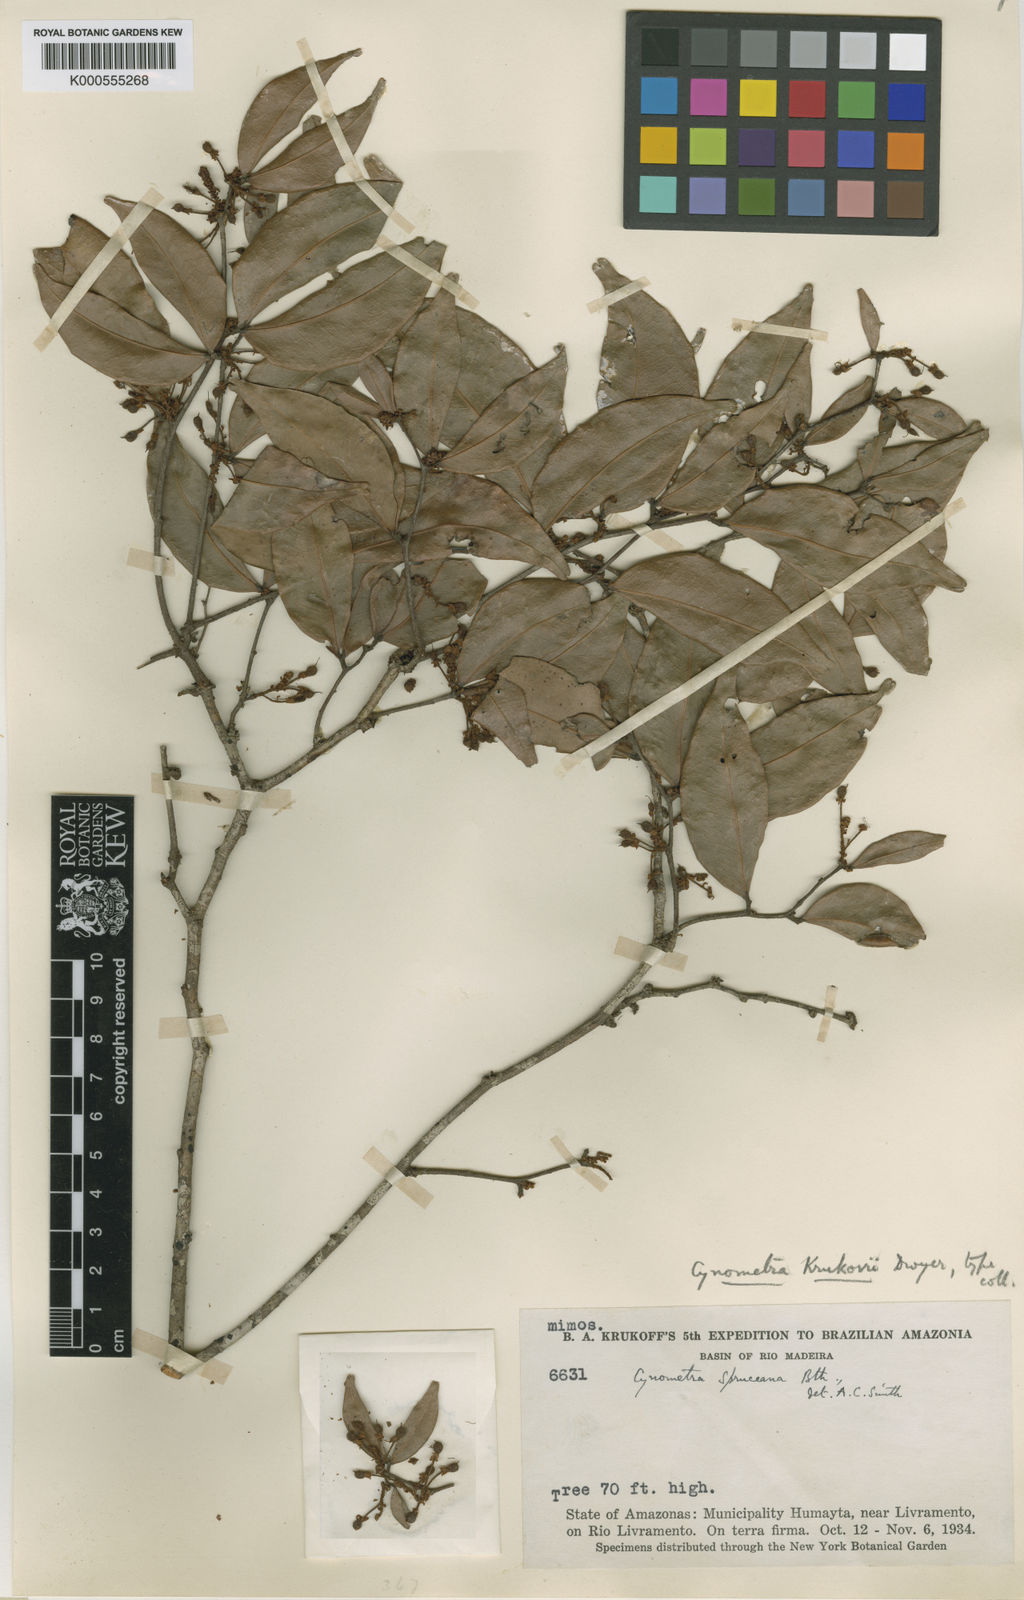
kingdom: Plantae
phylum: Tracheophyta
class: Magnoliopsida
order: Fabales
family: Fabaceae
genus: Cynometra
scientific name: Cynometra phaselocarpa
